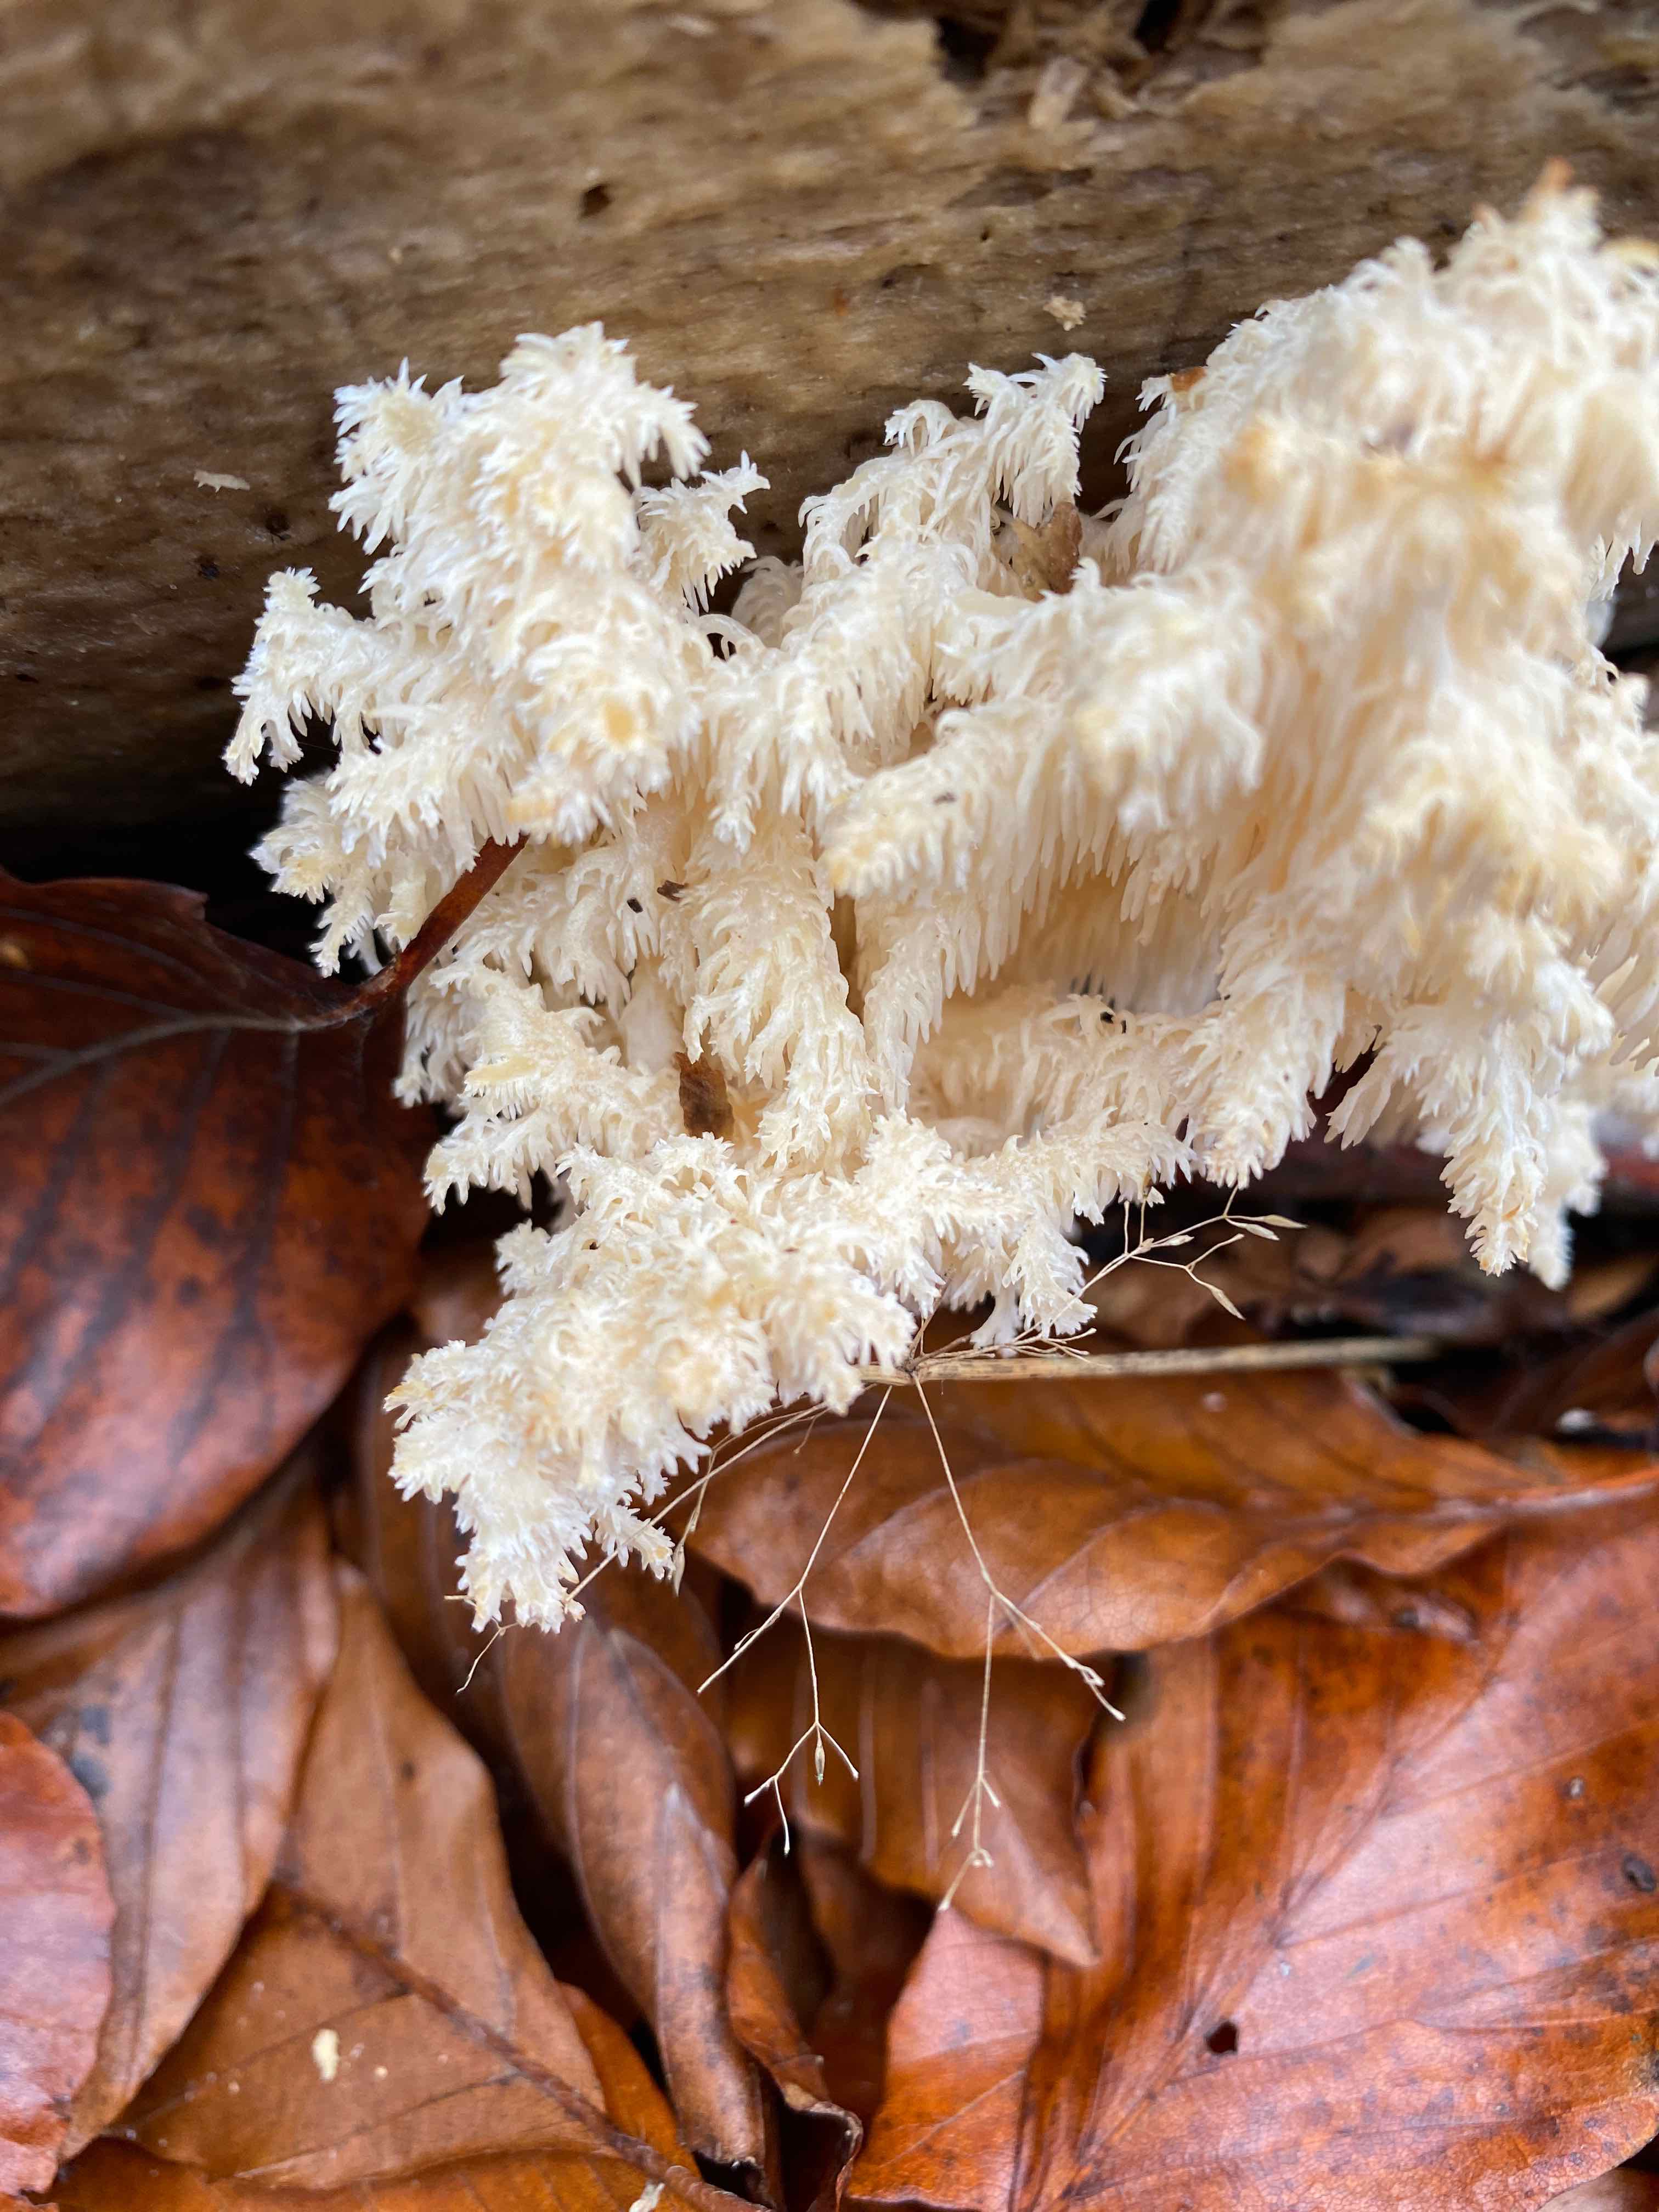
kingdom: Fungi
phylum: Basidiomycota
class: Agaricomycetes
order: Russulales
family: Hericiaceae
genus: Hericium
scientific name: Hericium coralloides
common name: koralpigsvamp
